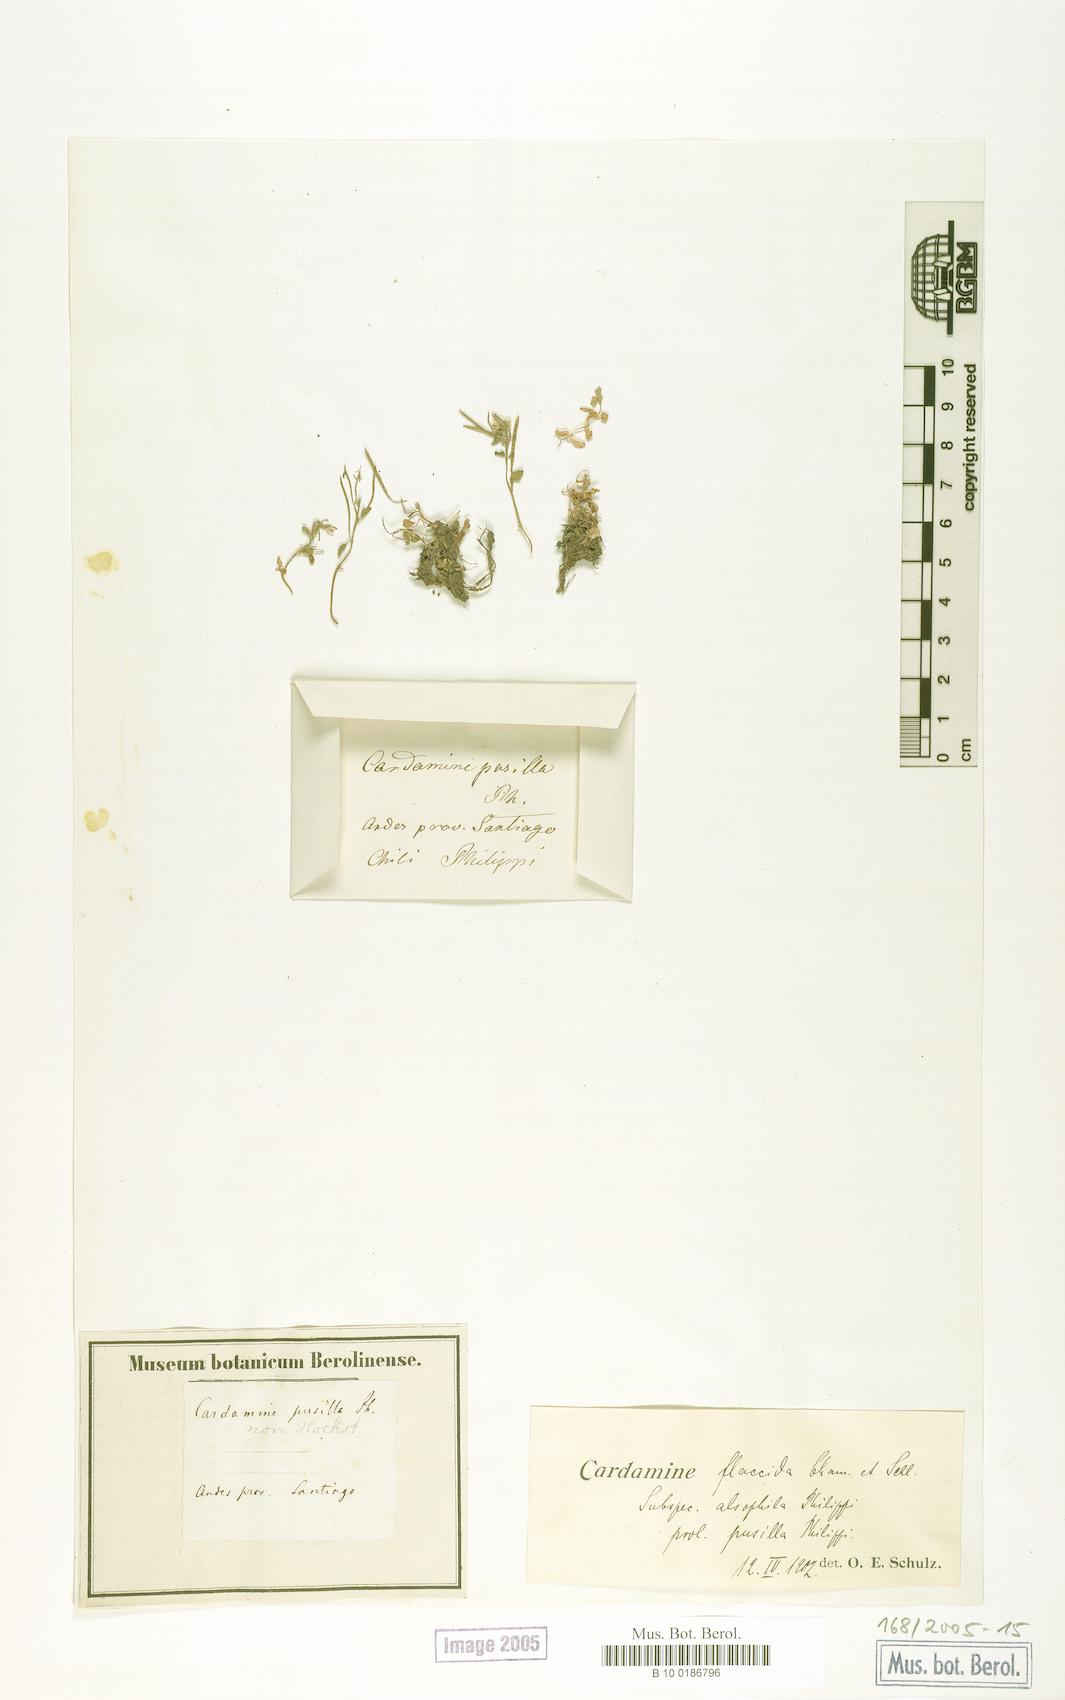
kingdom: Plantae
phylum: Tracheophyta
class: Magnoliopsida
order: Brassicales
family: Brassicaceae
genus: Cardamine
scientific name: Cardamine flaccida
